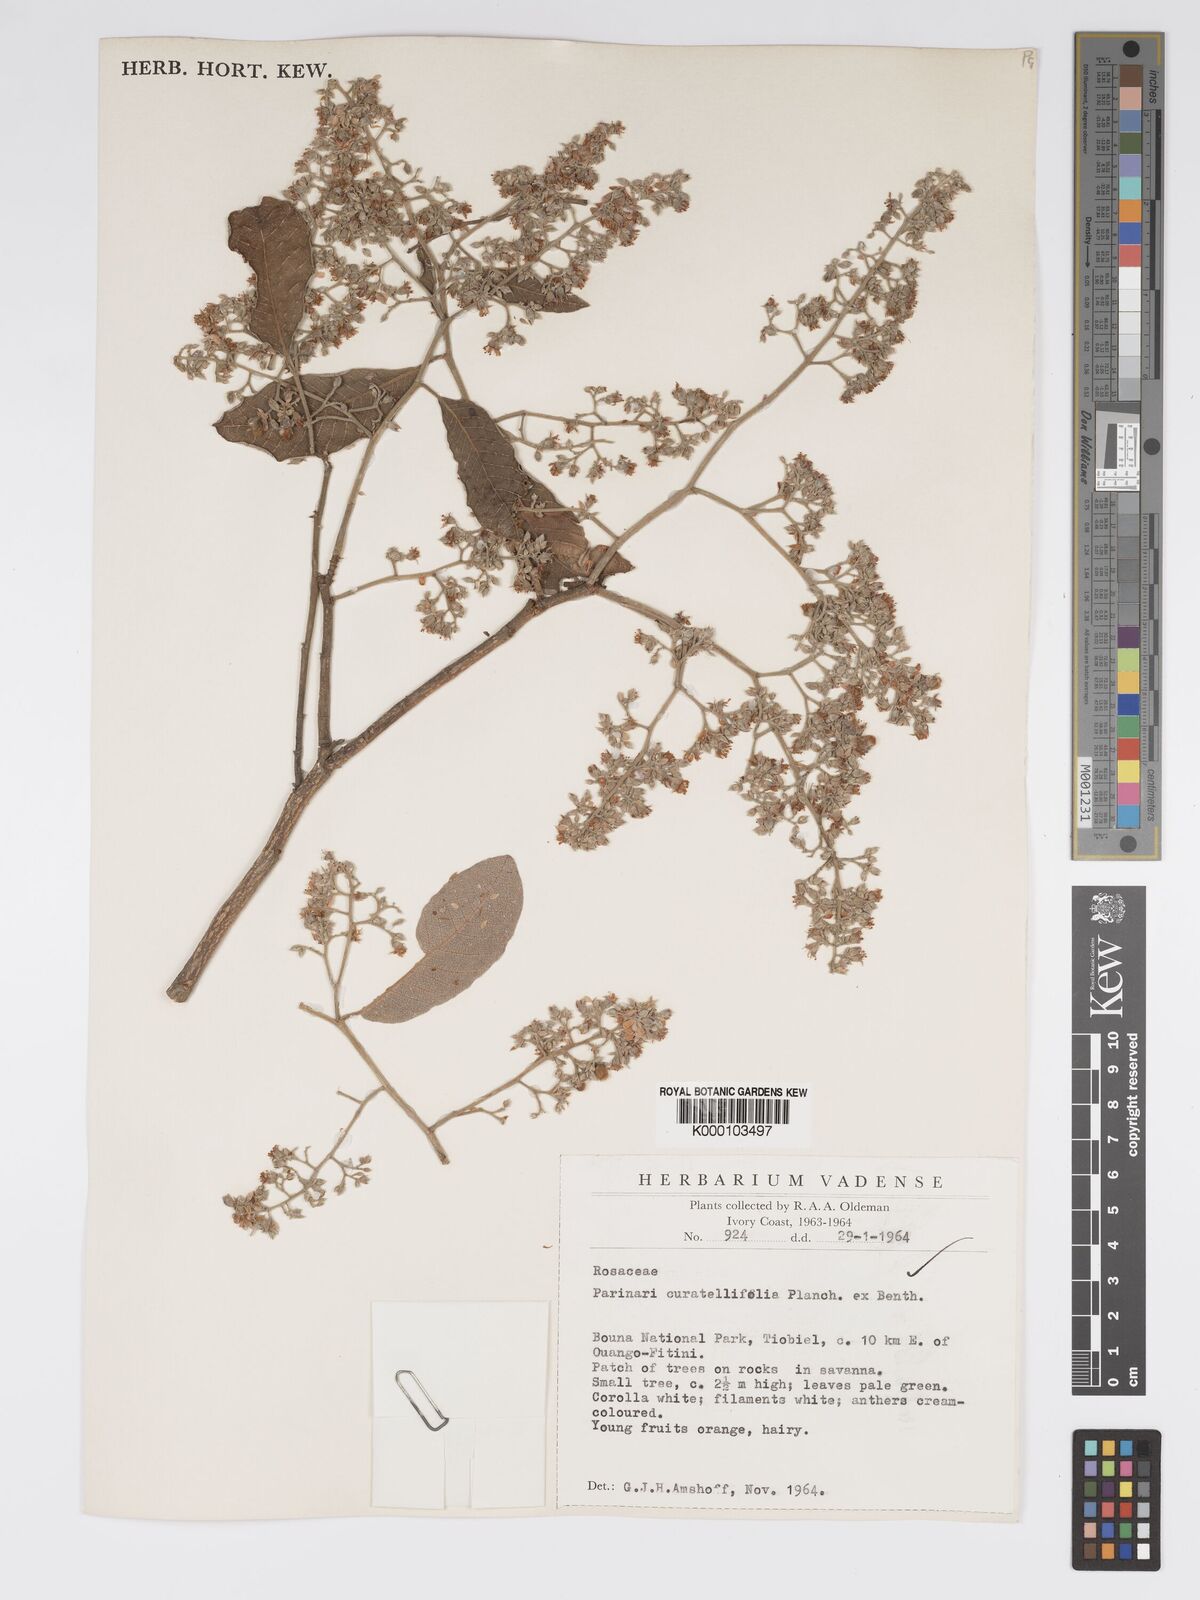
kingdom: Plantae
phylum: Tracheophyta
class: Magnoliopsida
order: Malpighiales
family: Chrysobalanaceae
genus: Parinari
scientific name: Parinari curatellifolia
